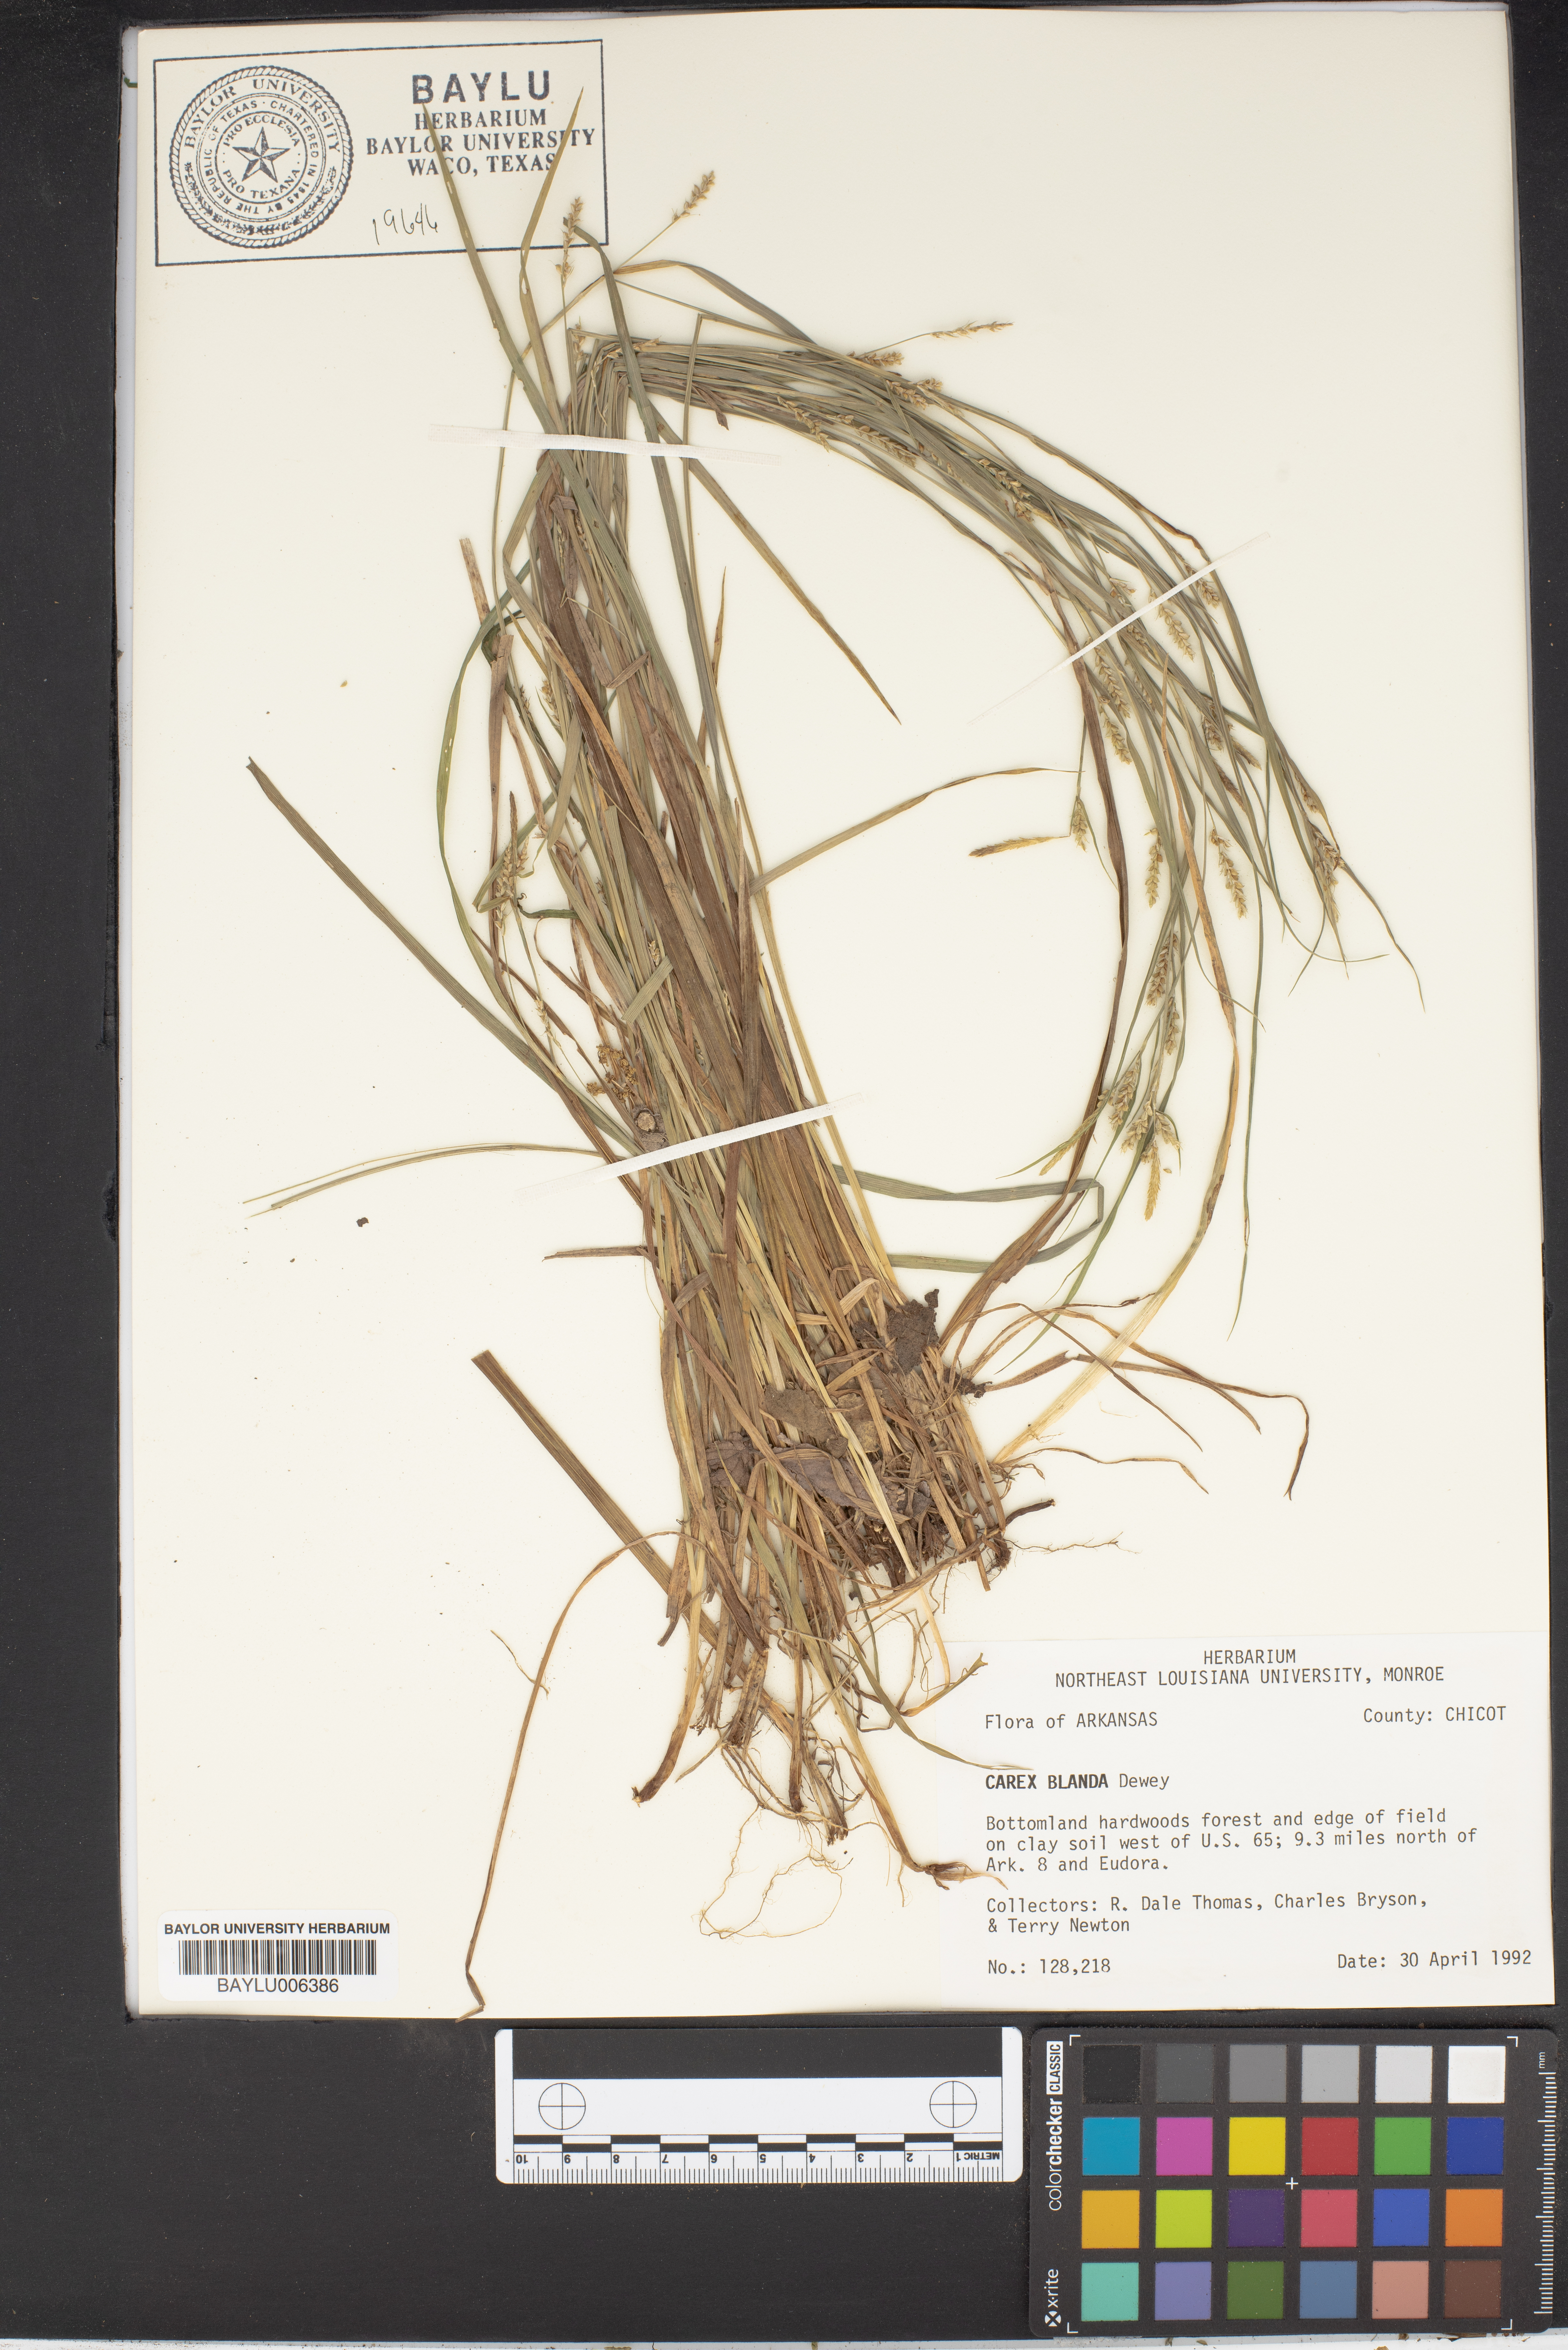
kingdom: Plantae
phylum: Tracheophyta
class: Liliopsida
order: Poales
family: Cyperaceae
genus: Carex
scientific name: Carex blanda
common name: Bland sedge
